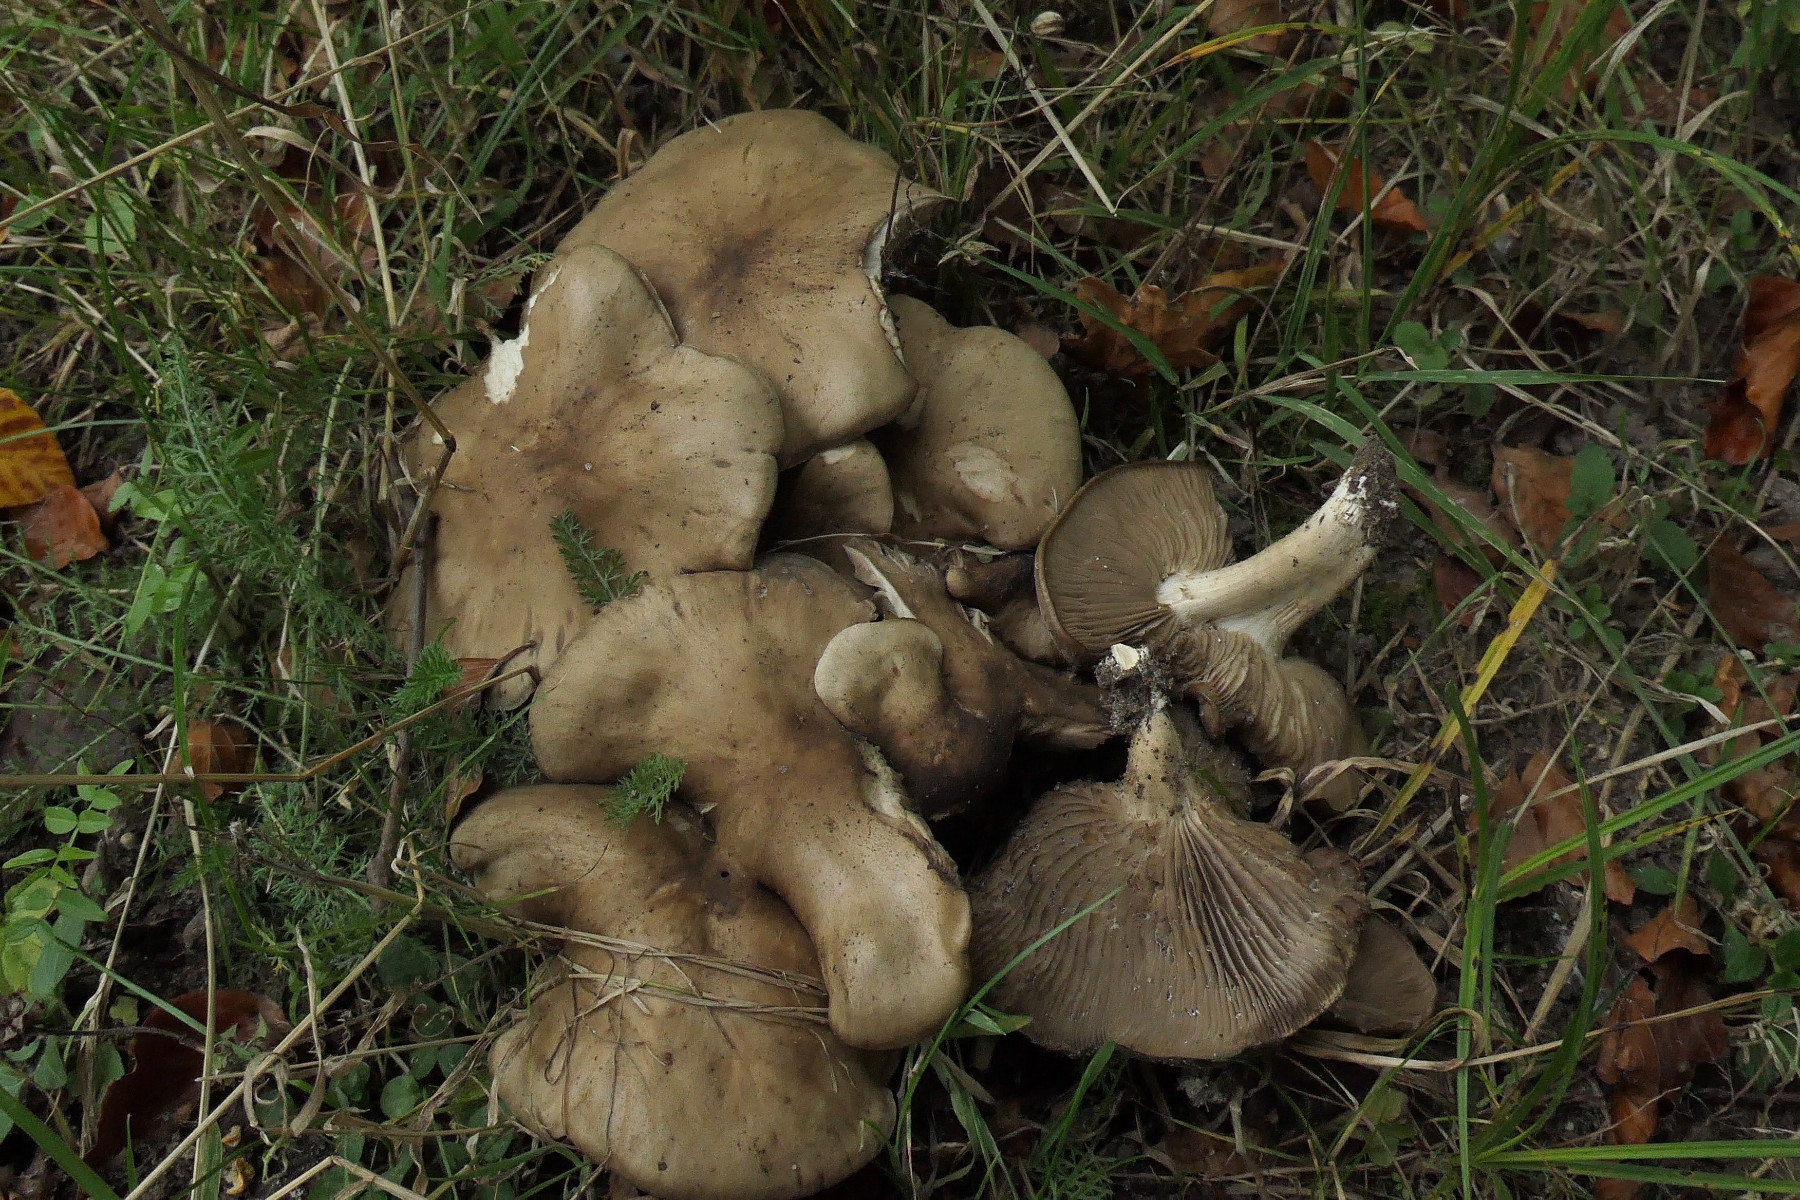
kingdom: Fungi
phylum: Basidiomycota
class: Agaricomycetes
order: Agaricales
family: Lyophyllaceae
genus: Lyophyllum
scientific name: Lyophyllum decastes
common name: røggrå gråblad
